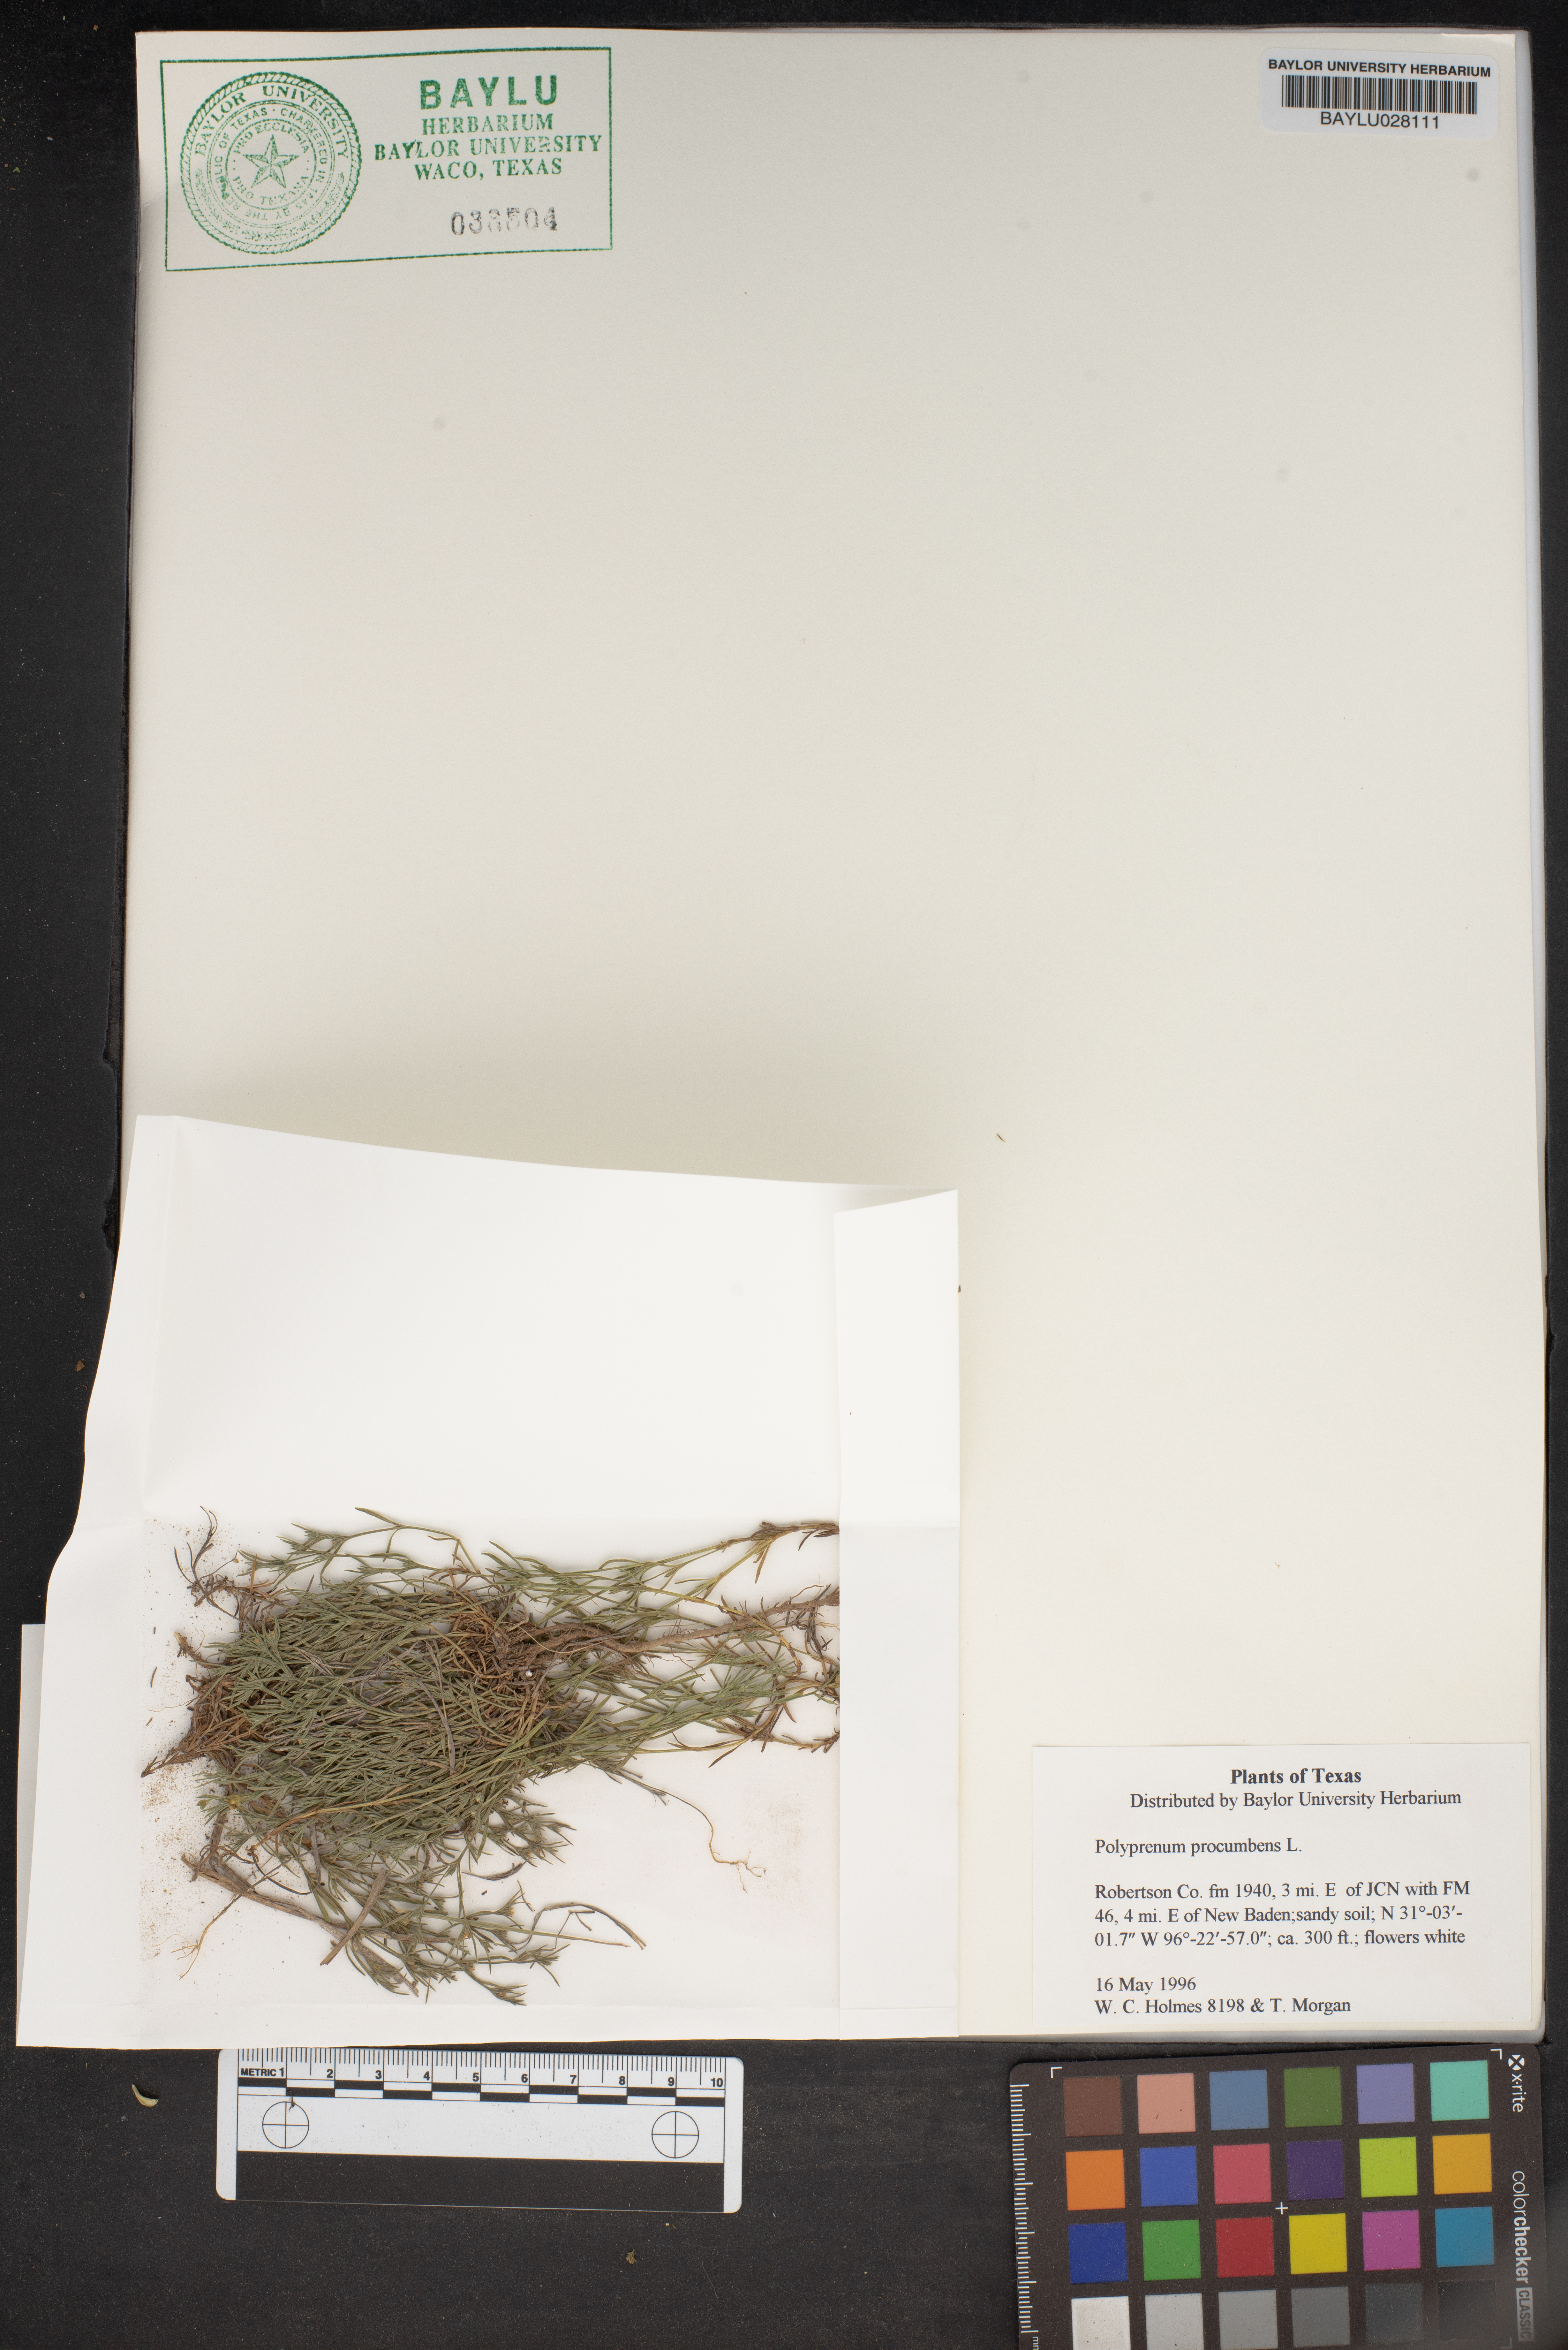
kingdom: Plantae
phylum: Tracheophyta
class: Magnoliopsida
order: Lamiales
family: Tetrachondraceae
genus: Polypremum
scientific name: Polypremum procumbens
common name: Juniper-leaf
